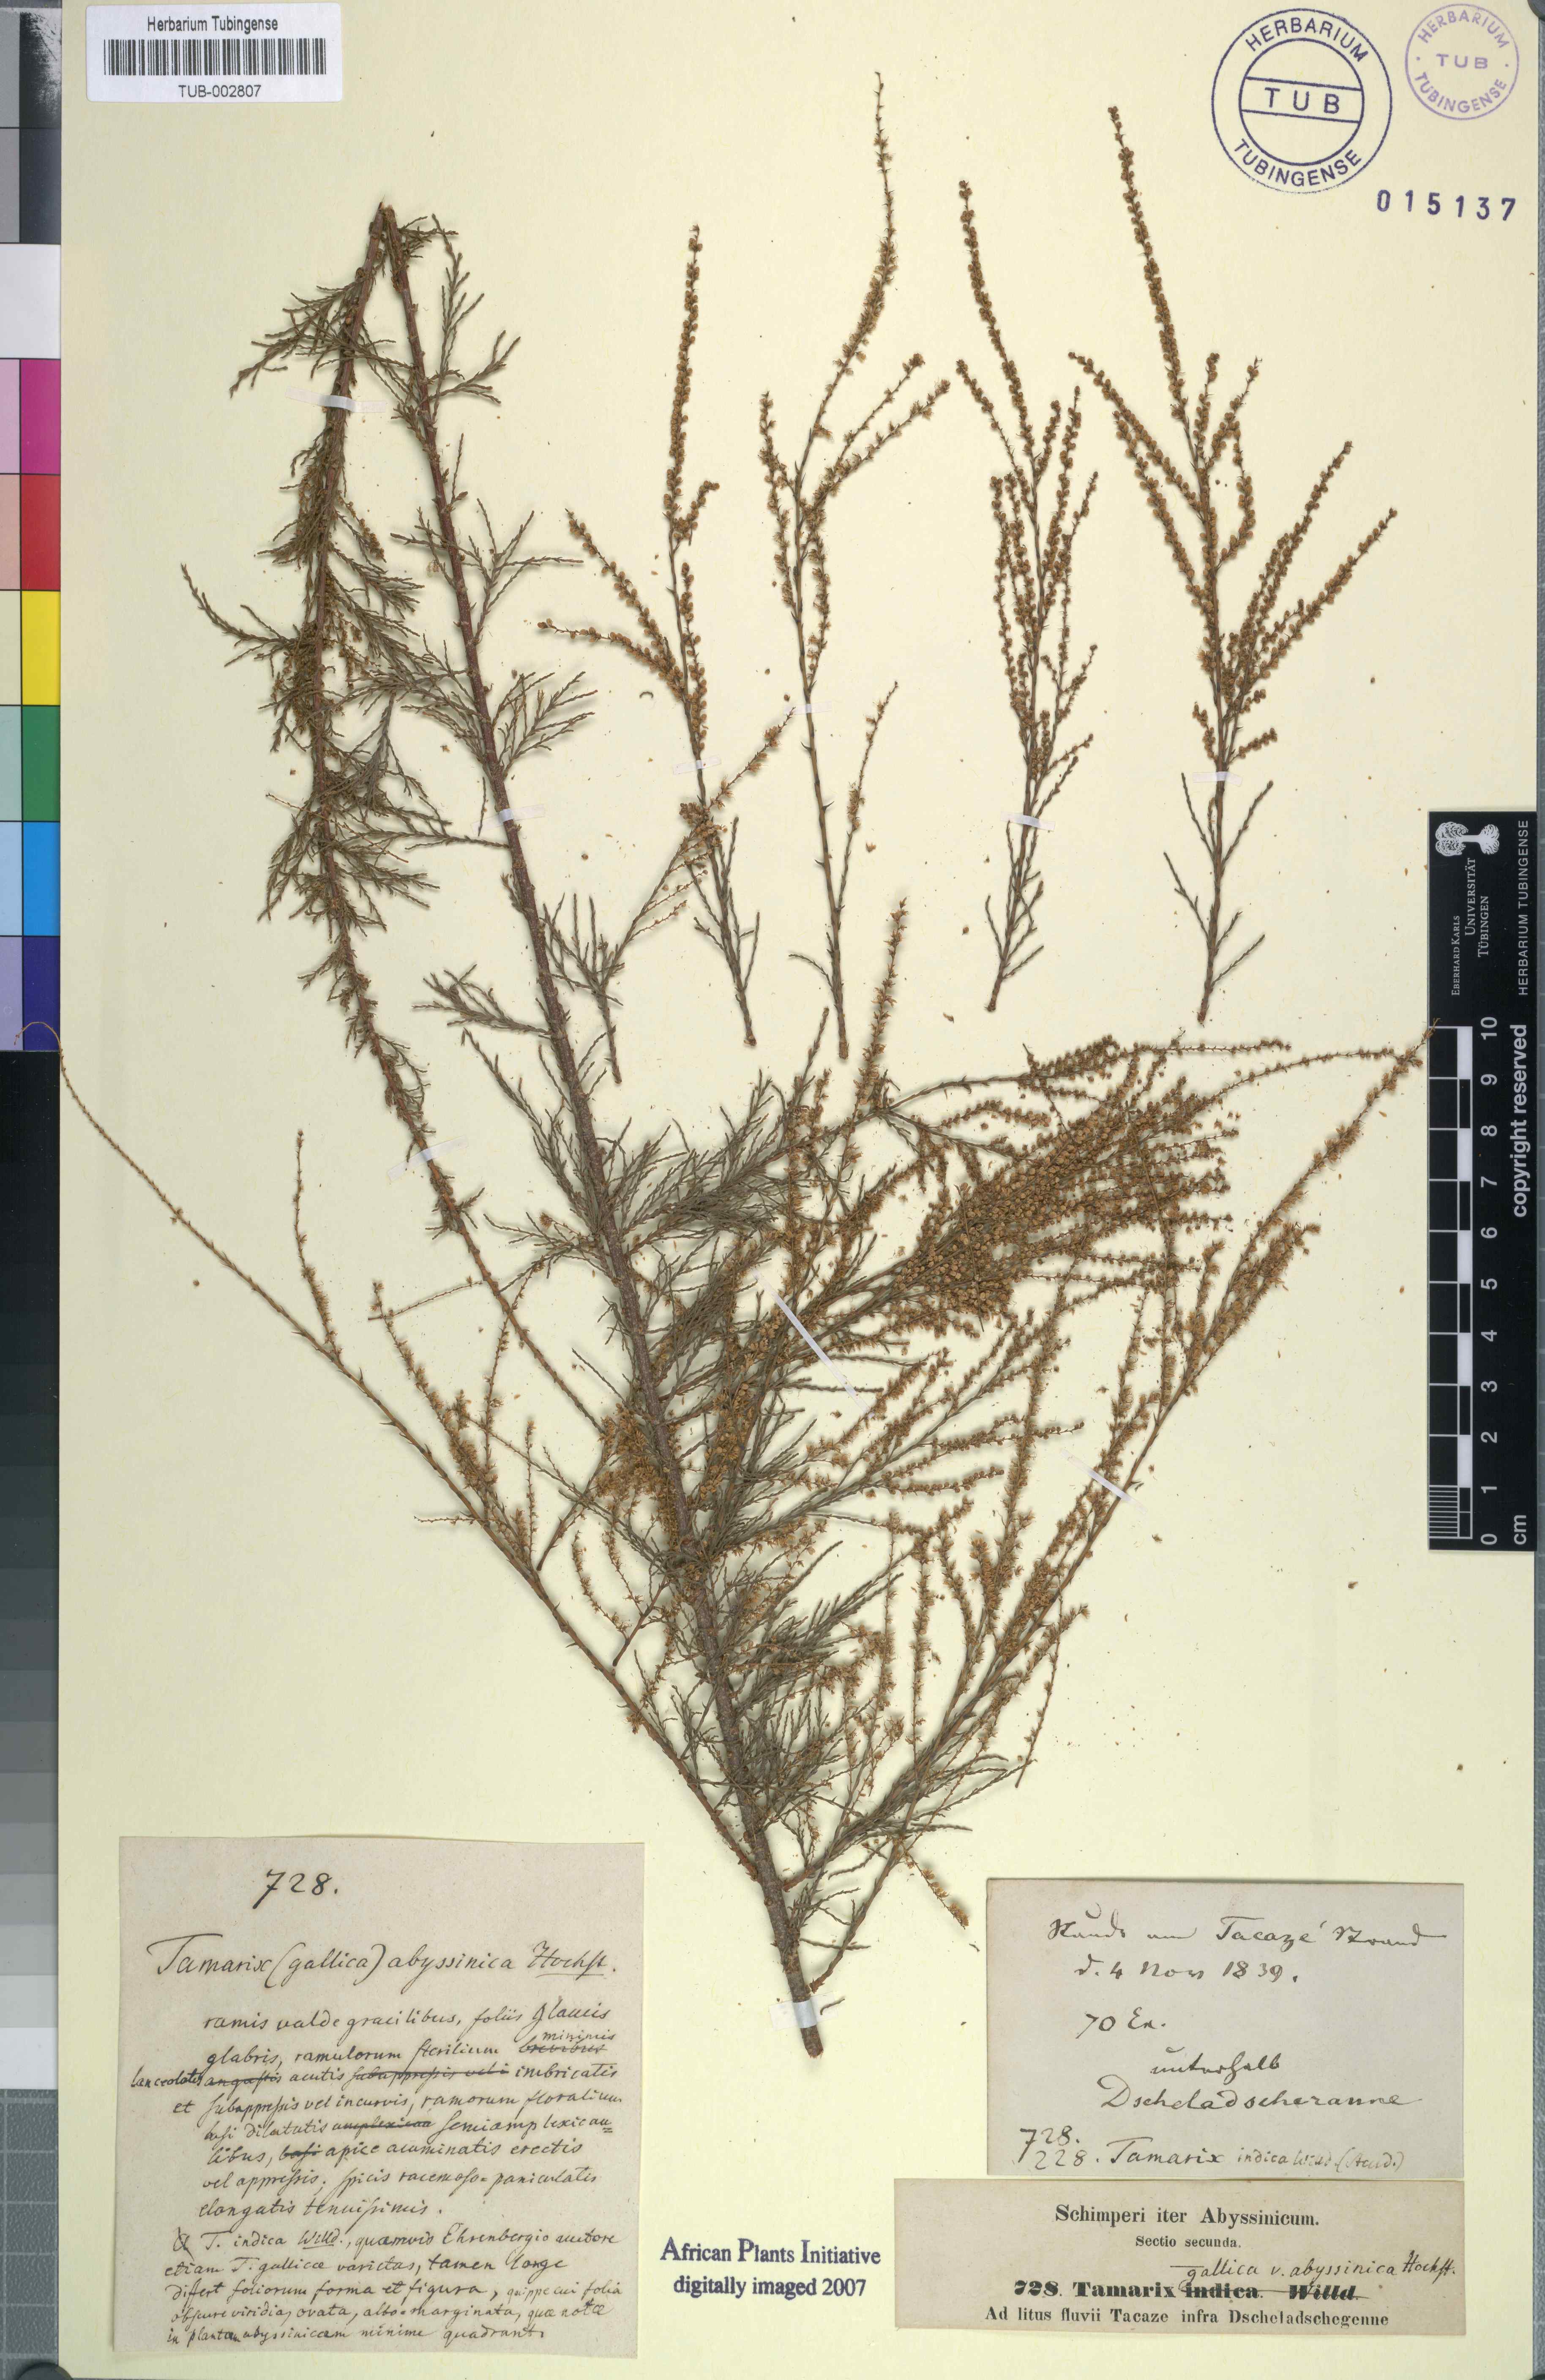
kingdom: Plantae
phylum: Tracheophyta
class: Magnoliopsida
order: Caryophyllales
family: Tamaricaceae
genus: Tamarix
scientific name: Tamarix gallica
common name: Tamarisk
